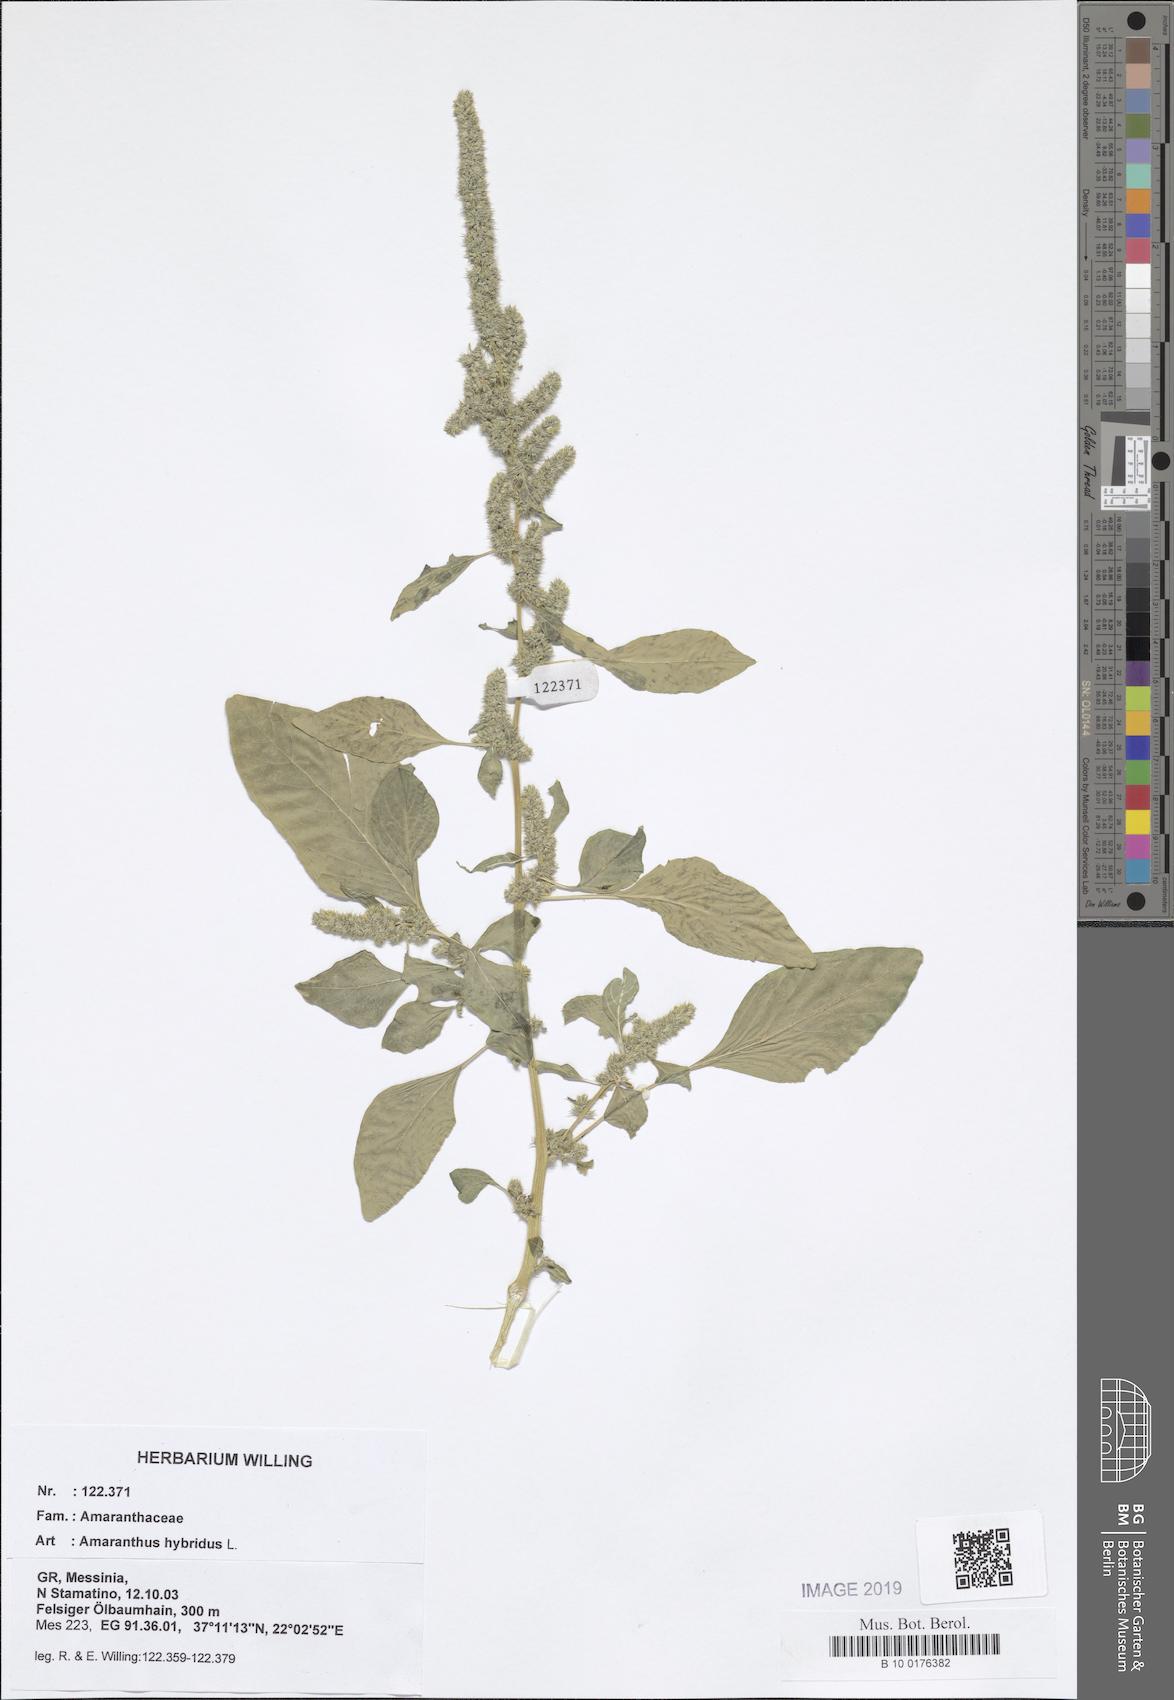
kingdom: Plantae
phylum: Tracheophyta
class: Magnoliopsida
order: Caryophyllales
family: Amaranthaceae
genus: Amaranthus
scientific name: Amaranthus hybridus
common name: Green amaranth
